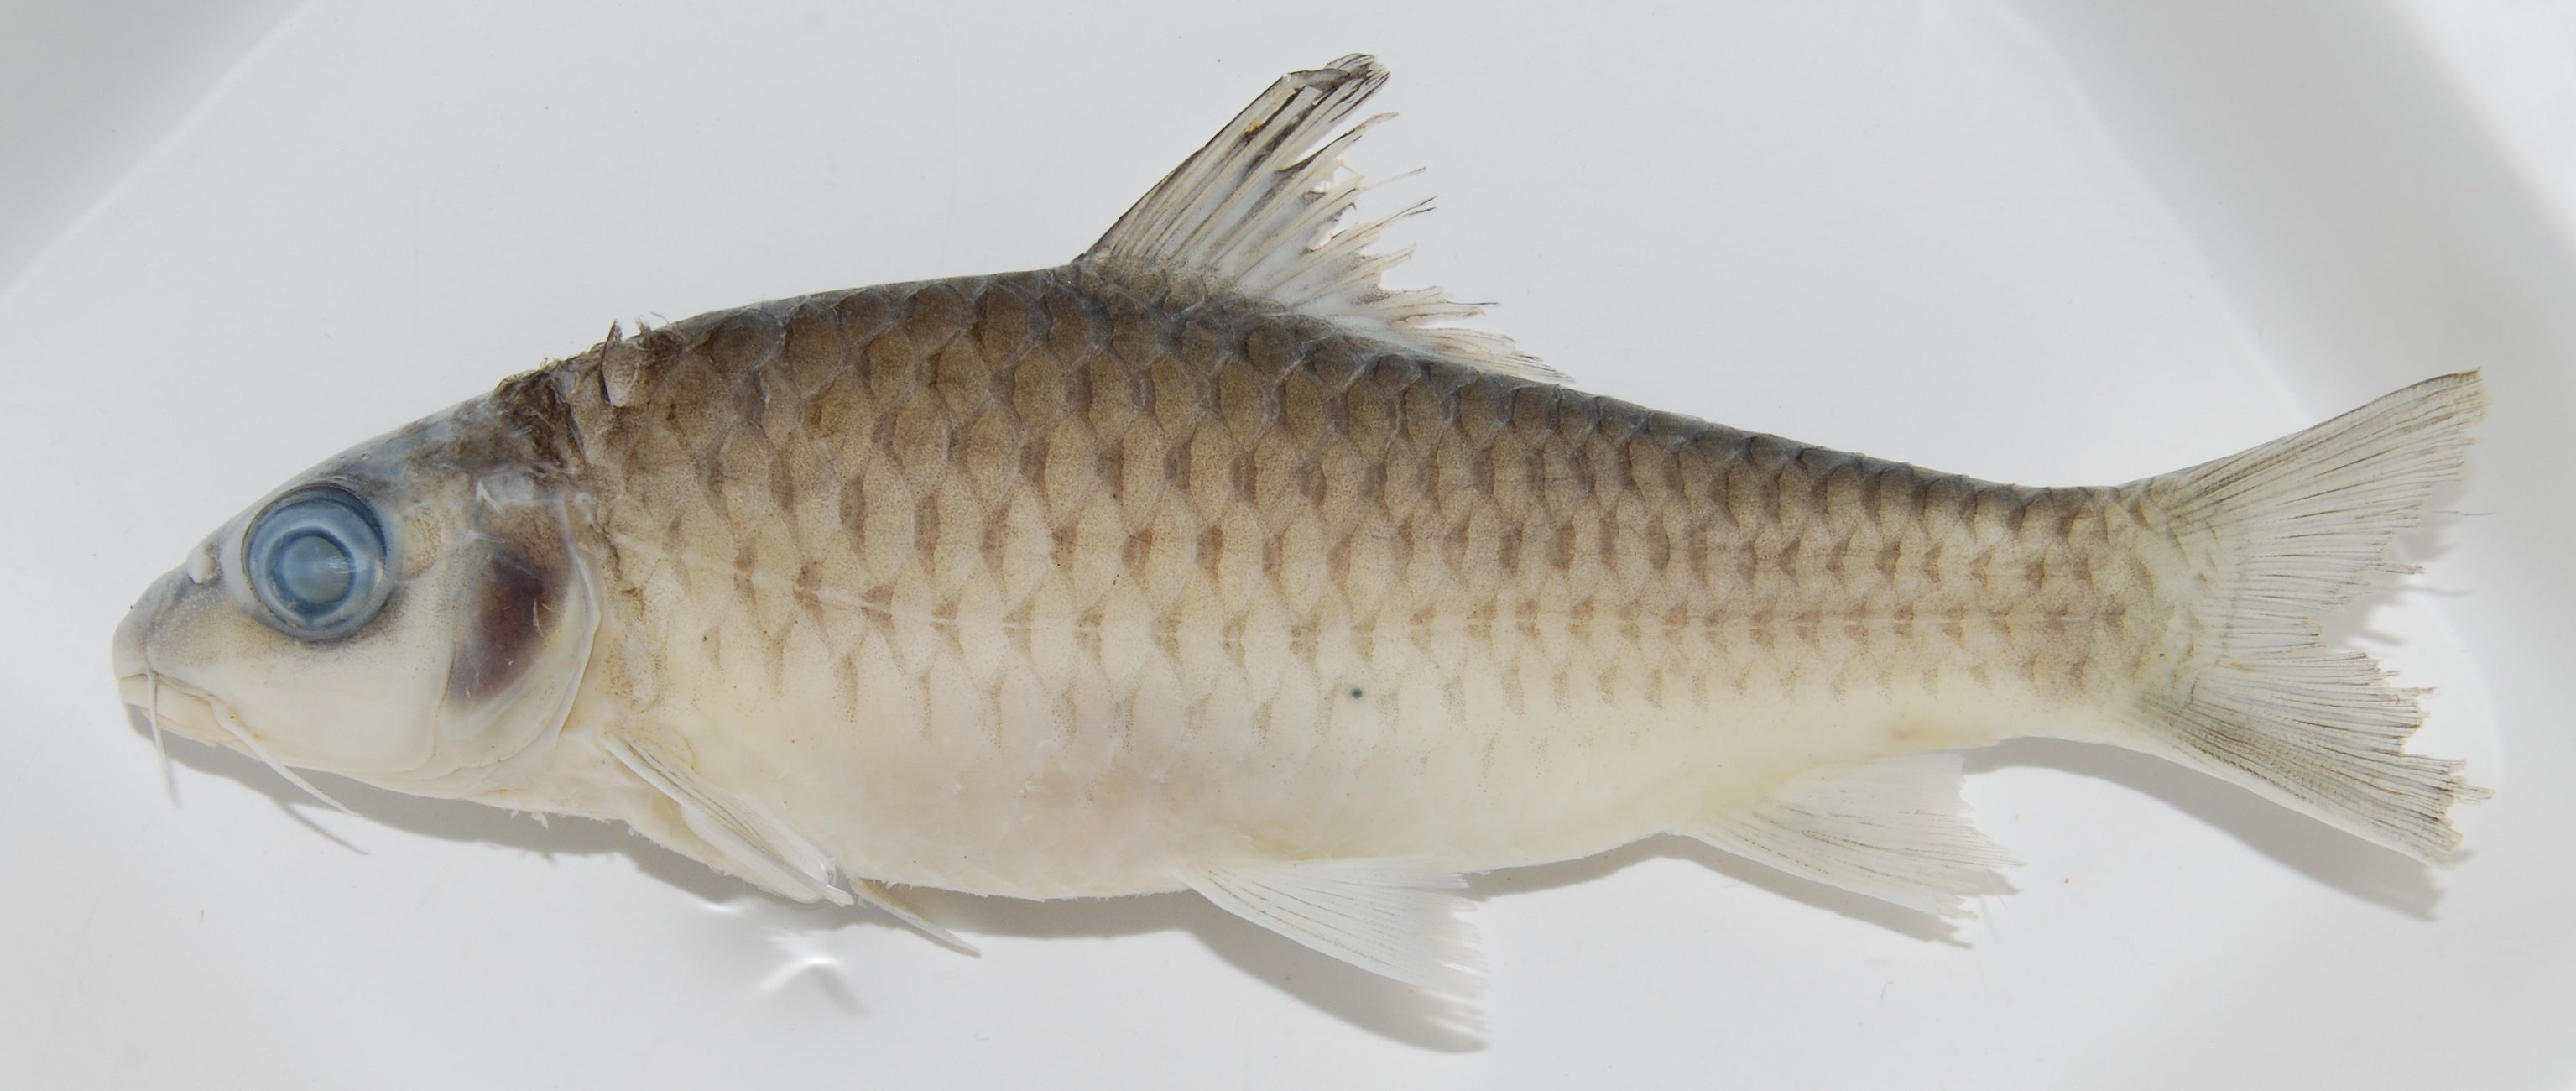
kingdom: Animalia
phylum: Chordata
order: Cypriniformes
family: Cyprinidae
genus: Labeobarbus
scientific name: Labeobarbus
